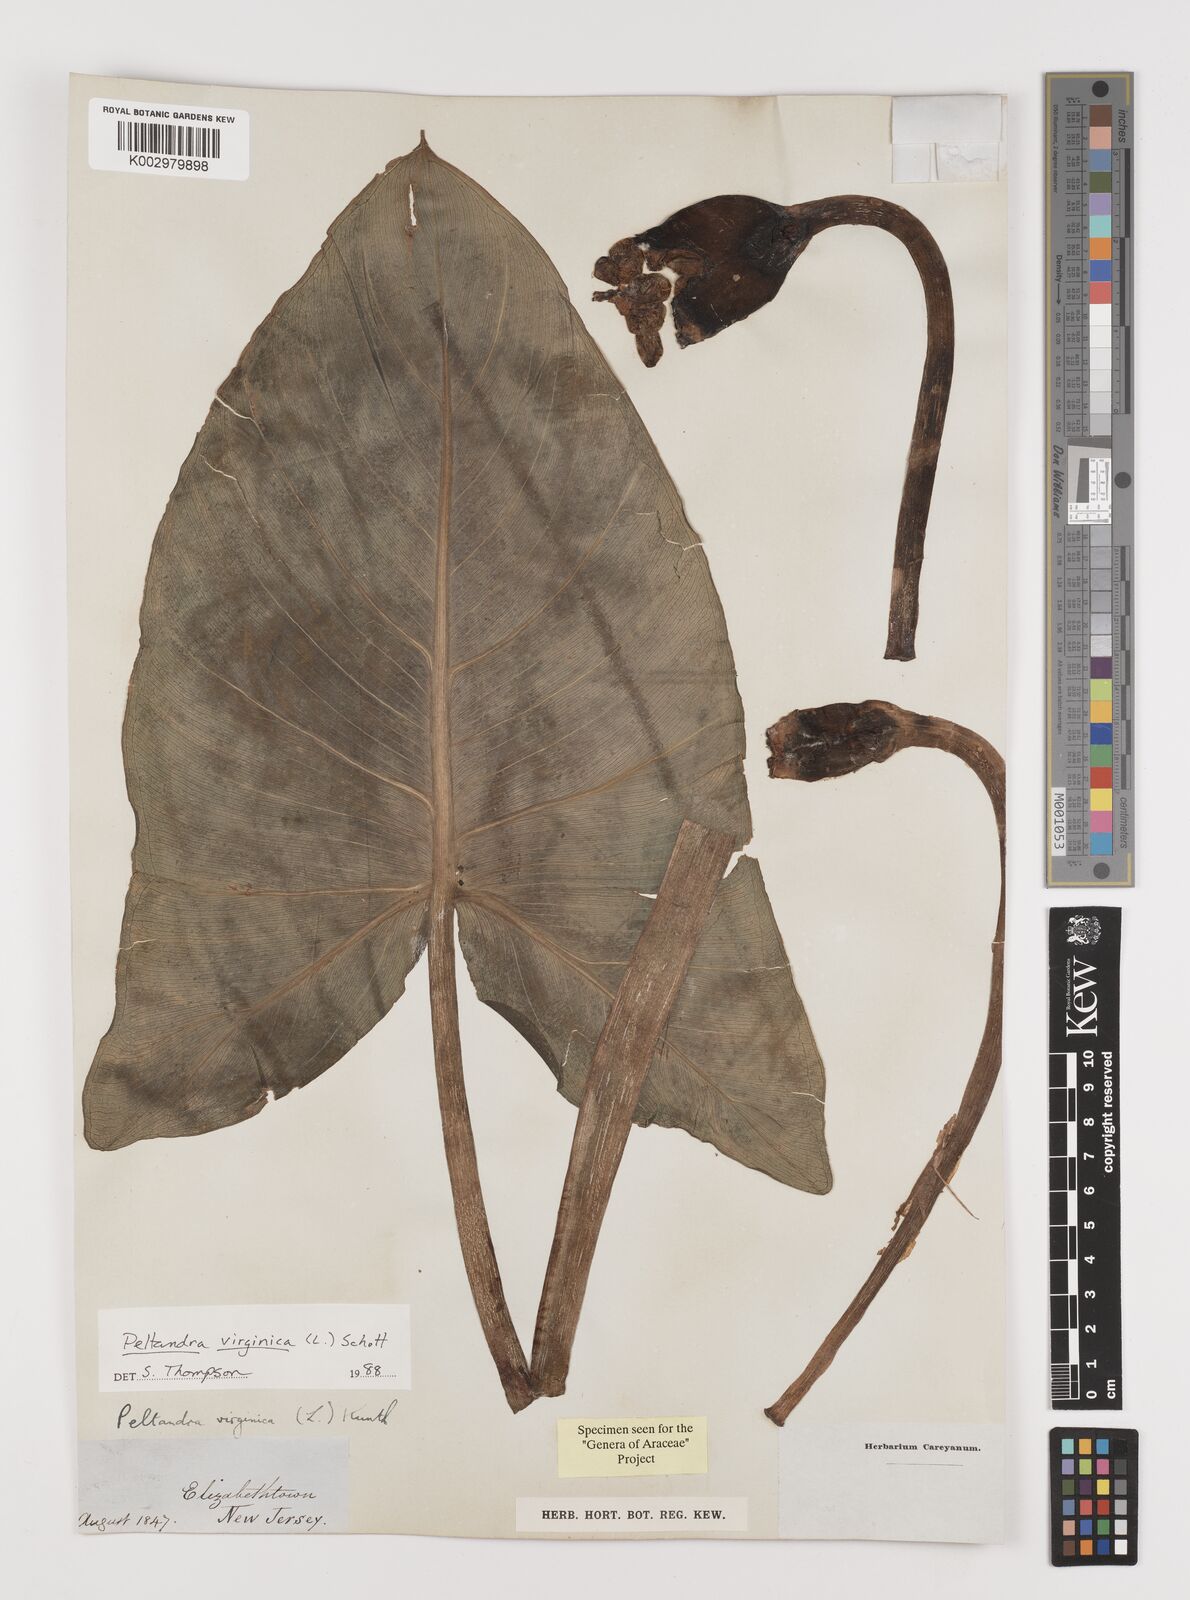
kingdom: Plantae
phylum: Tracheophyta
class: Liliopsida
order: Alismatales
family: Araceae
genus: Peltandra
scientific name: Peltandra virginica
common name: Arrow arum
